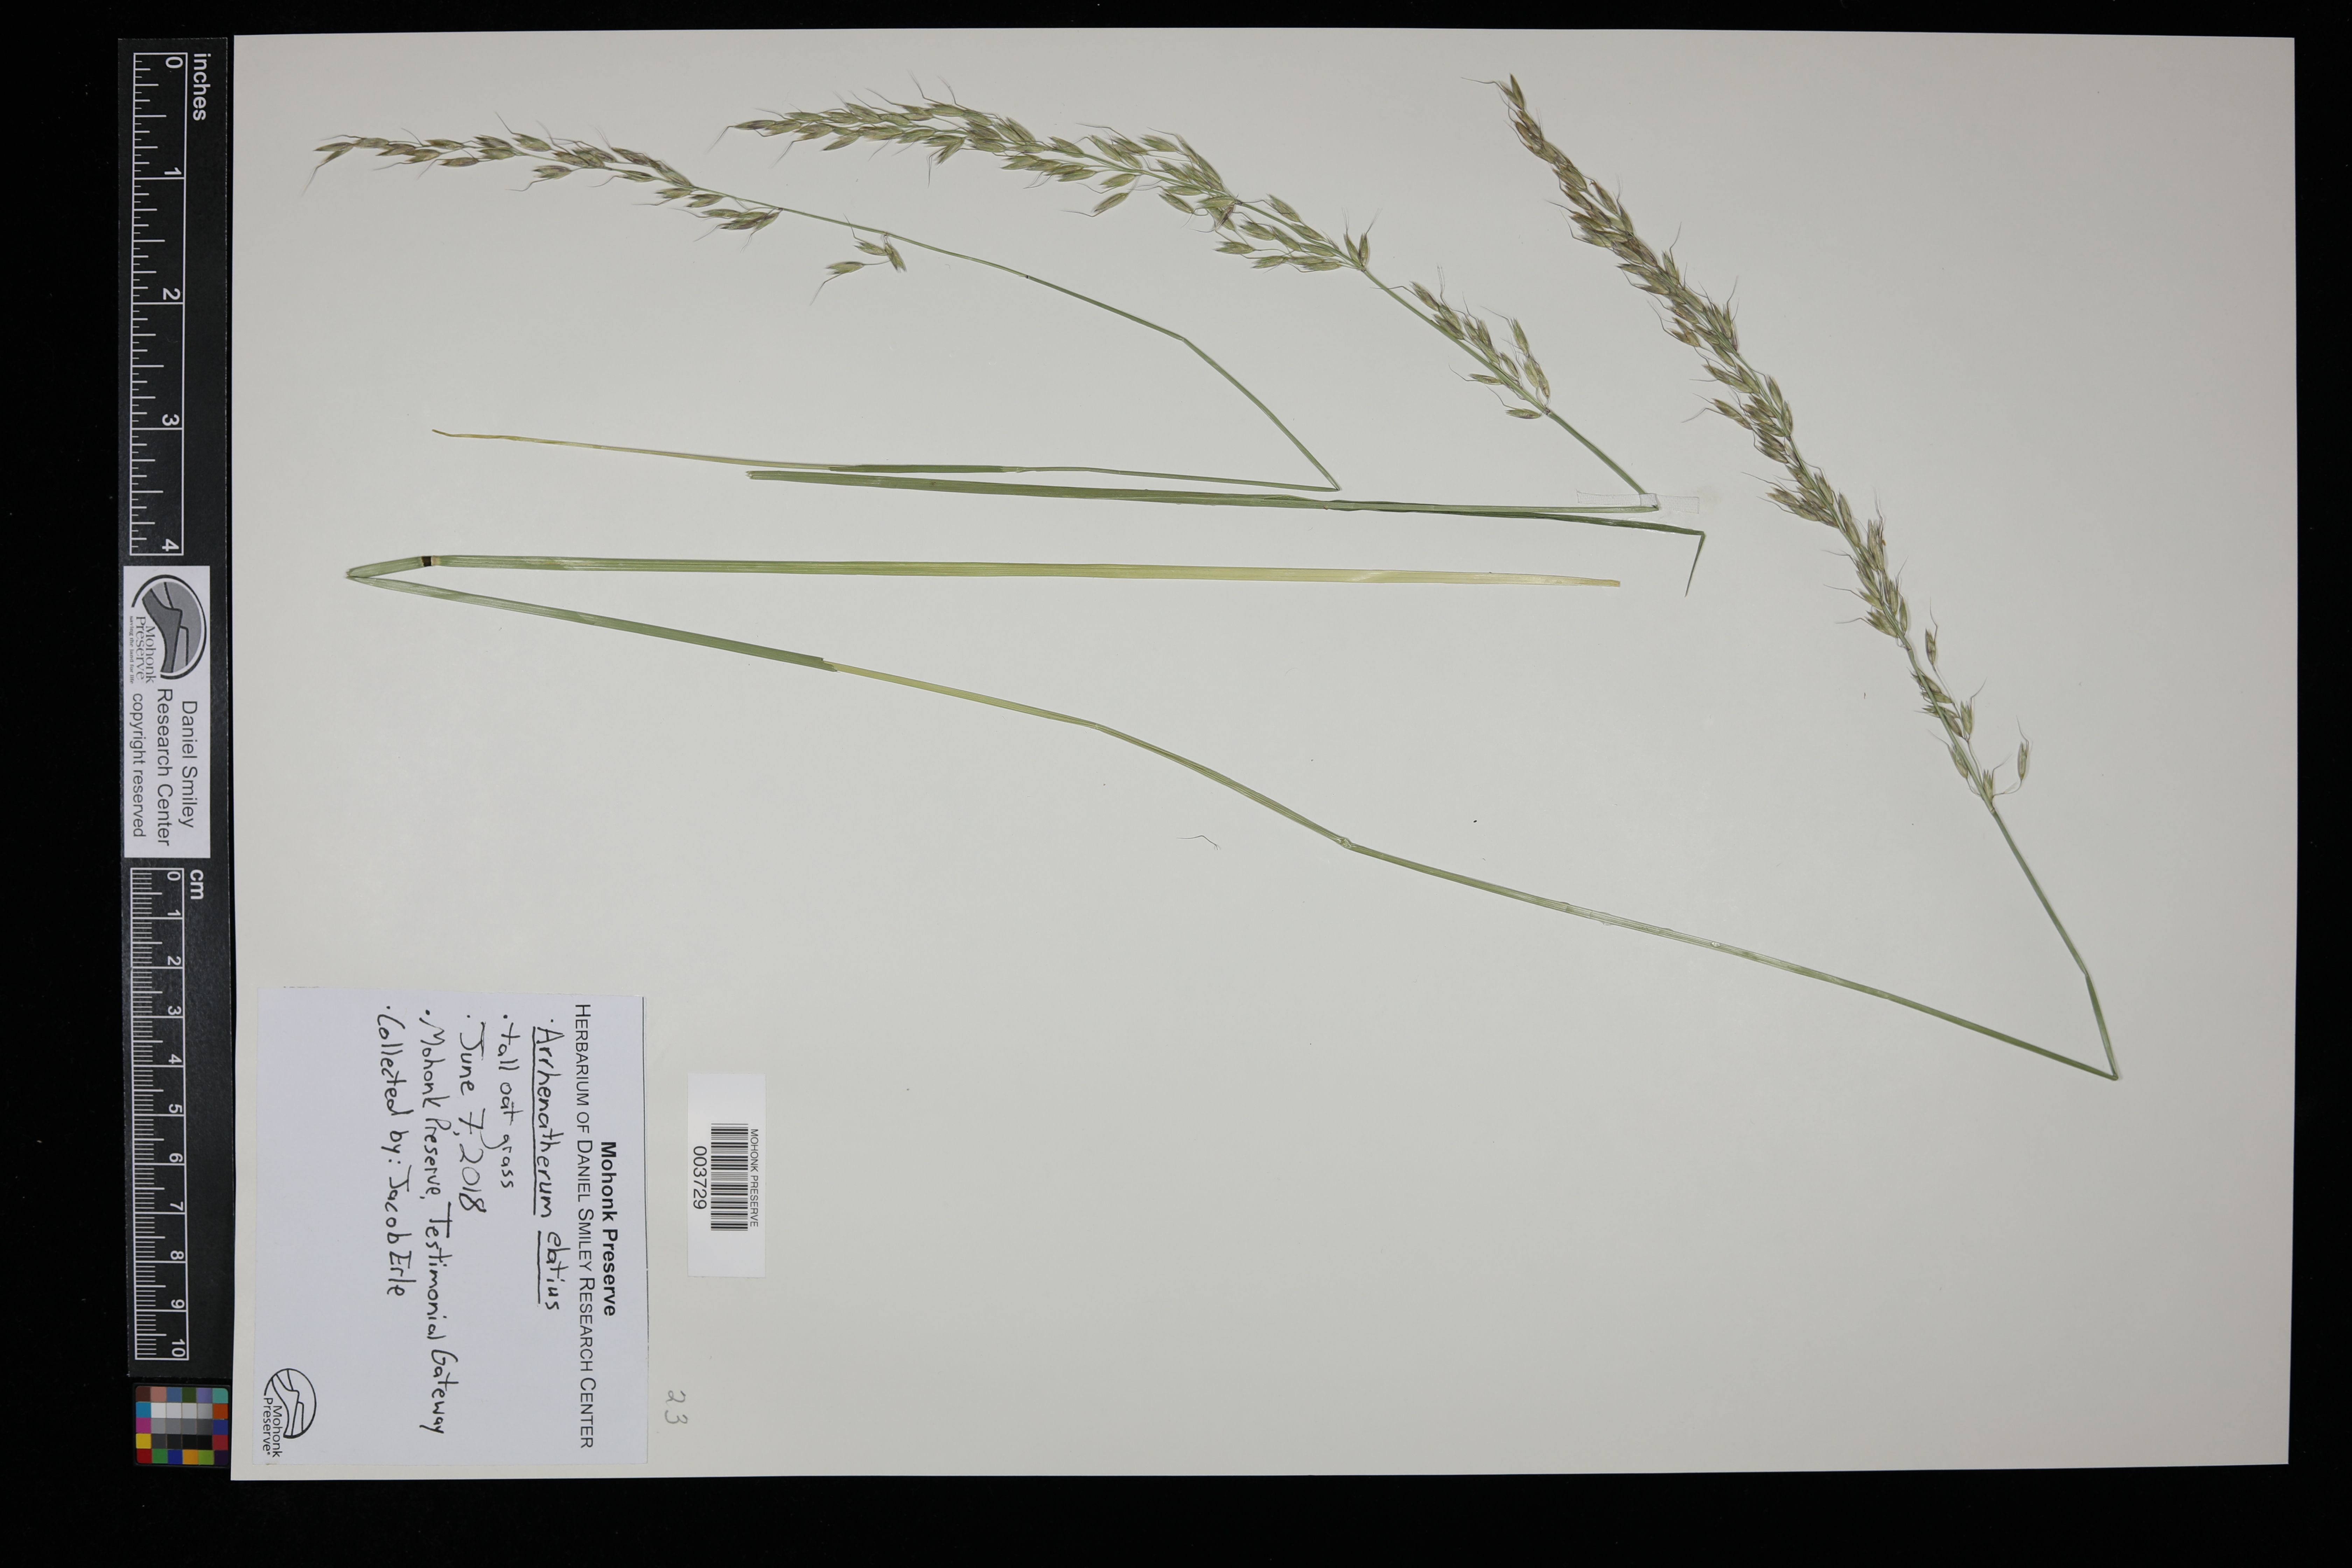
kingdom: Plantae
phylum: Tracheophyta
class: Liliopsida
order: Poales
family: Poaceae
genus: Arrhenatherum
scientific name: Arrhenatherum elatius
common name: Tall oatgrass
